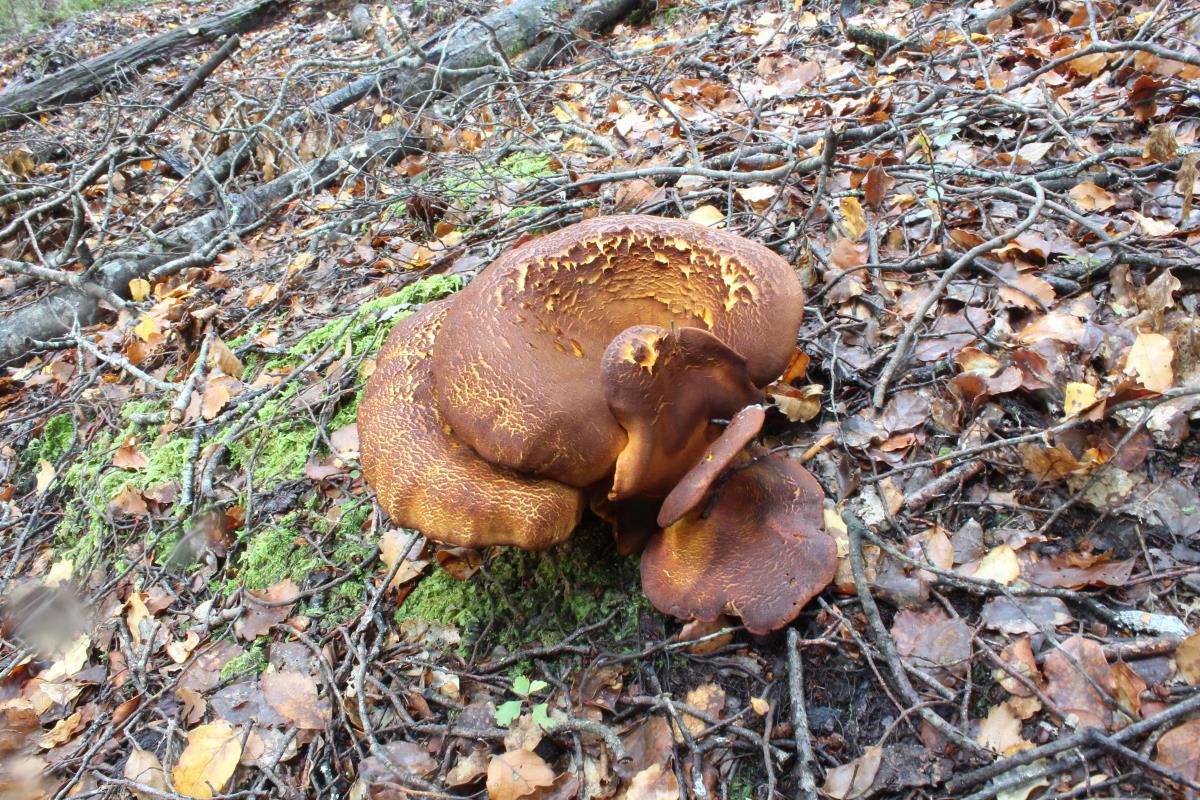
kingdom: Fungi
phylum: Basidiomycota
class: Agaricomycetes
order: Boletales
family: Serpulaceae
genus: Austropaxillus
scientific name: Austropaxillus mcnabbii
